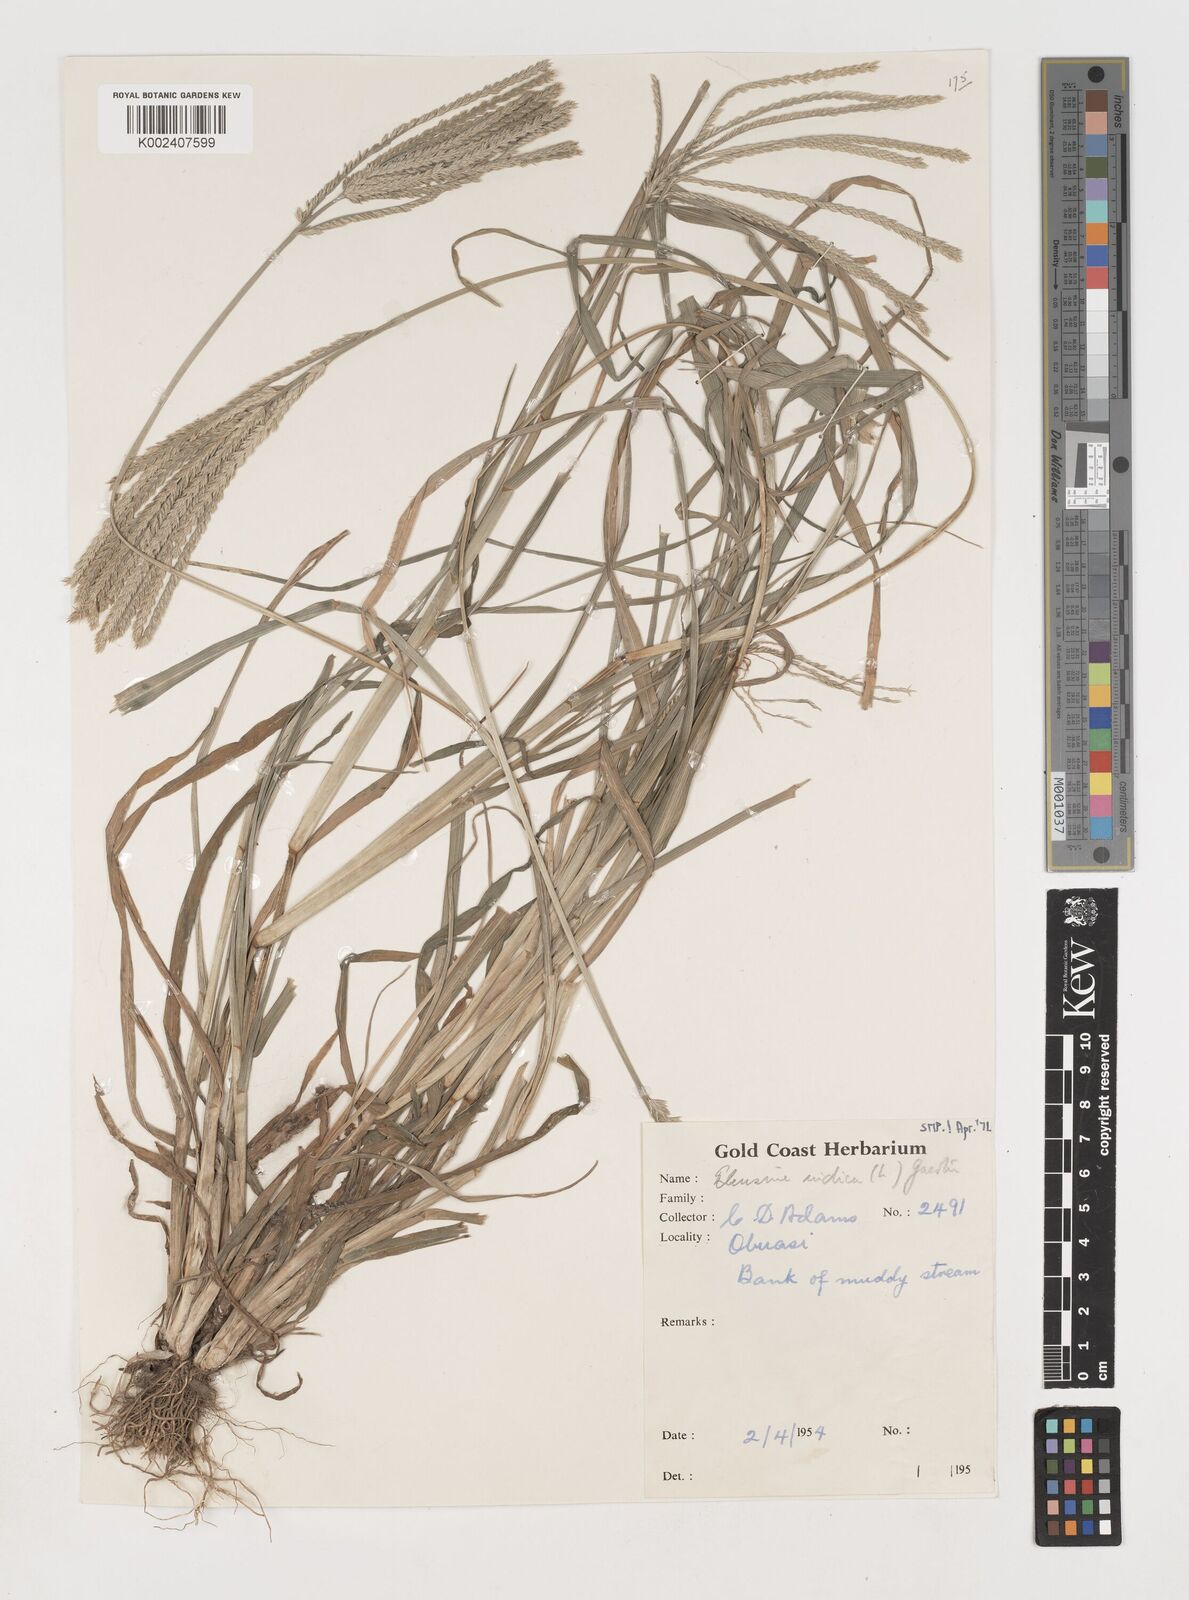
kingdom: Plantae
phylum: Tracheophyta
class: Liliopsida
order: Poales
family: Poaceae
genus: Eleusine
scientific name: Eleusine indica
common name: Yard-grass
